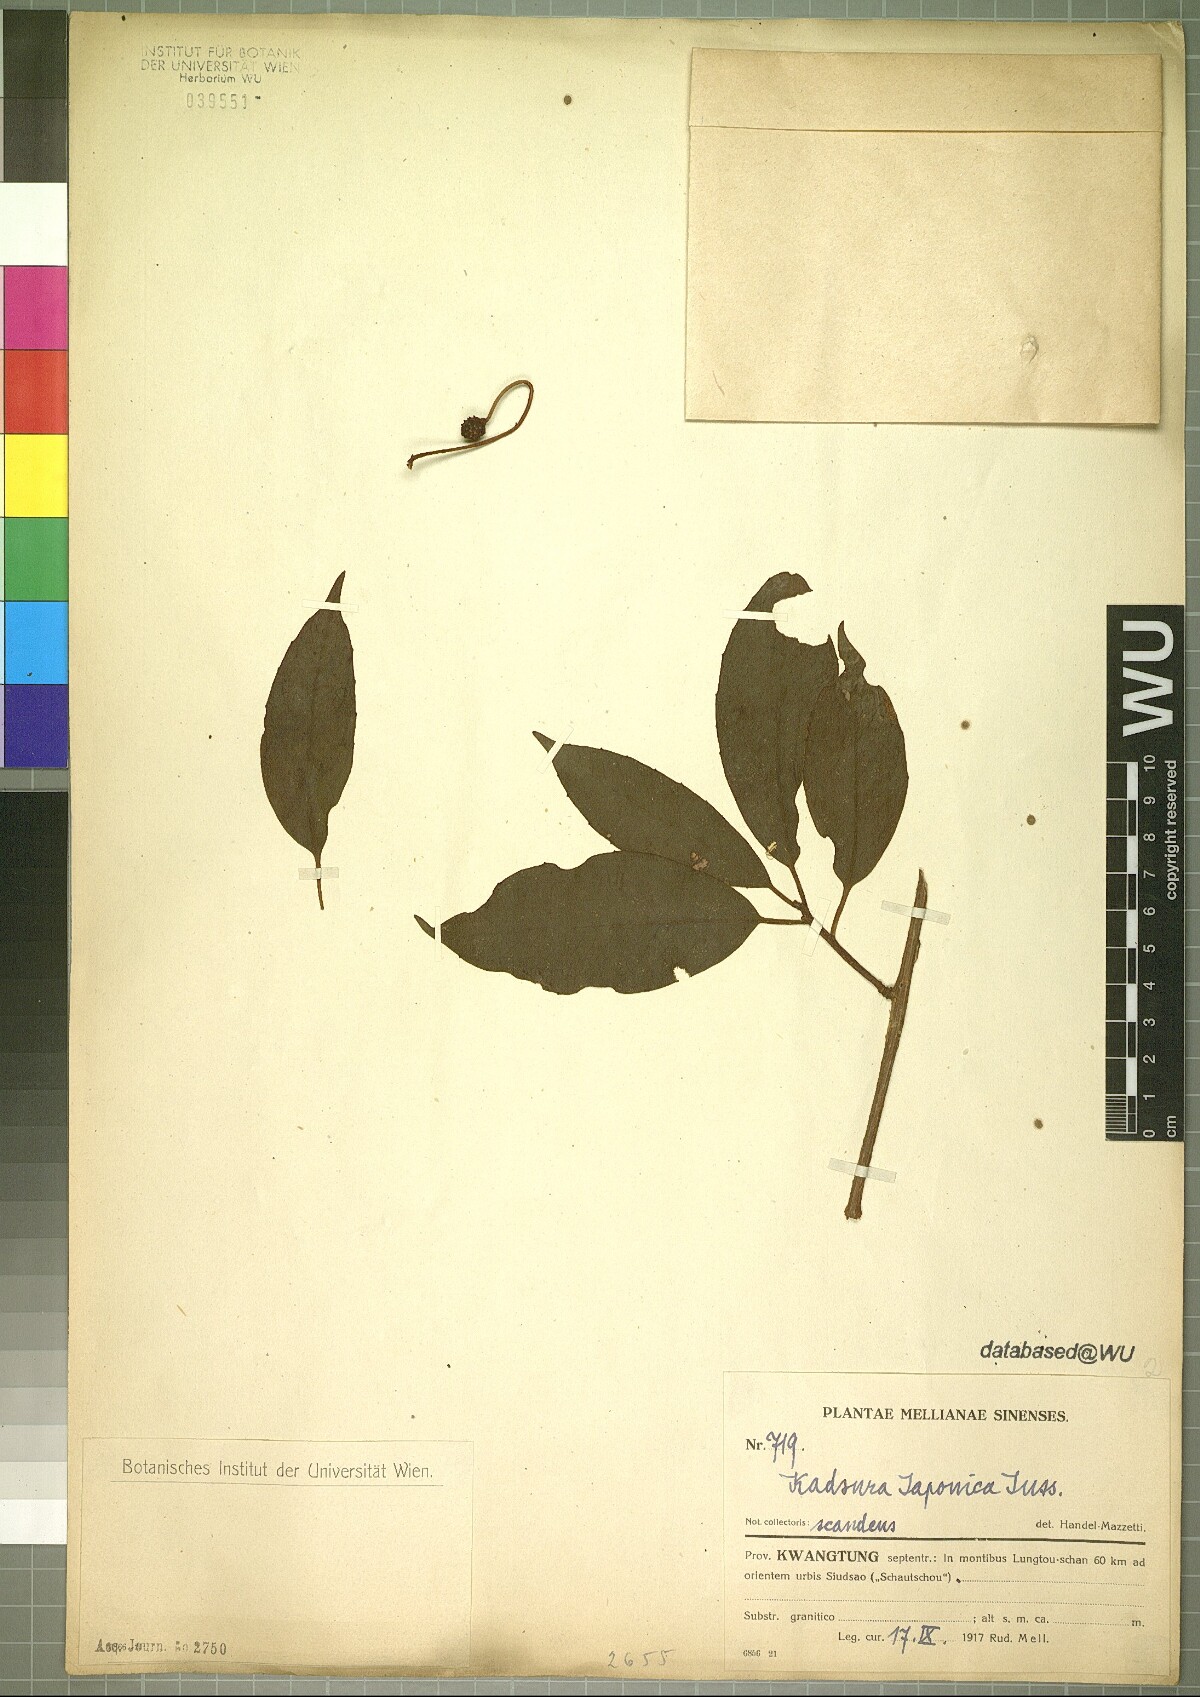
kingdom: Plantae
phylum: Tracheophyta
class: Magnoliopsida
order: Austrobaileyales
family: Schisandraceae
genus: Kadsura
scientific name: Kadsura japonica
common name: Japanese kadsura
